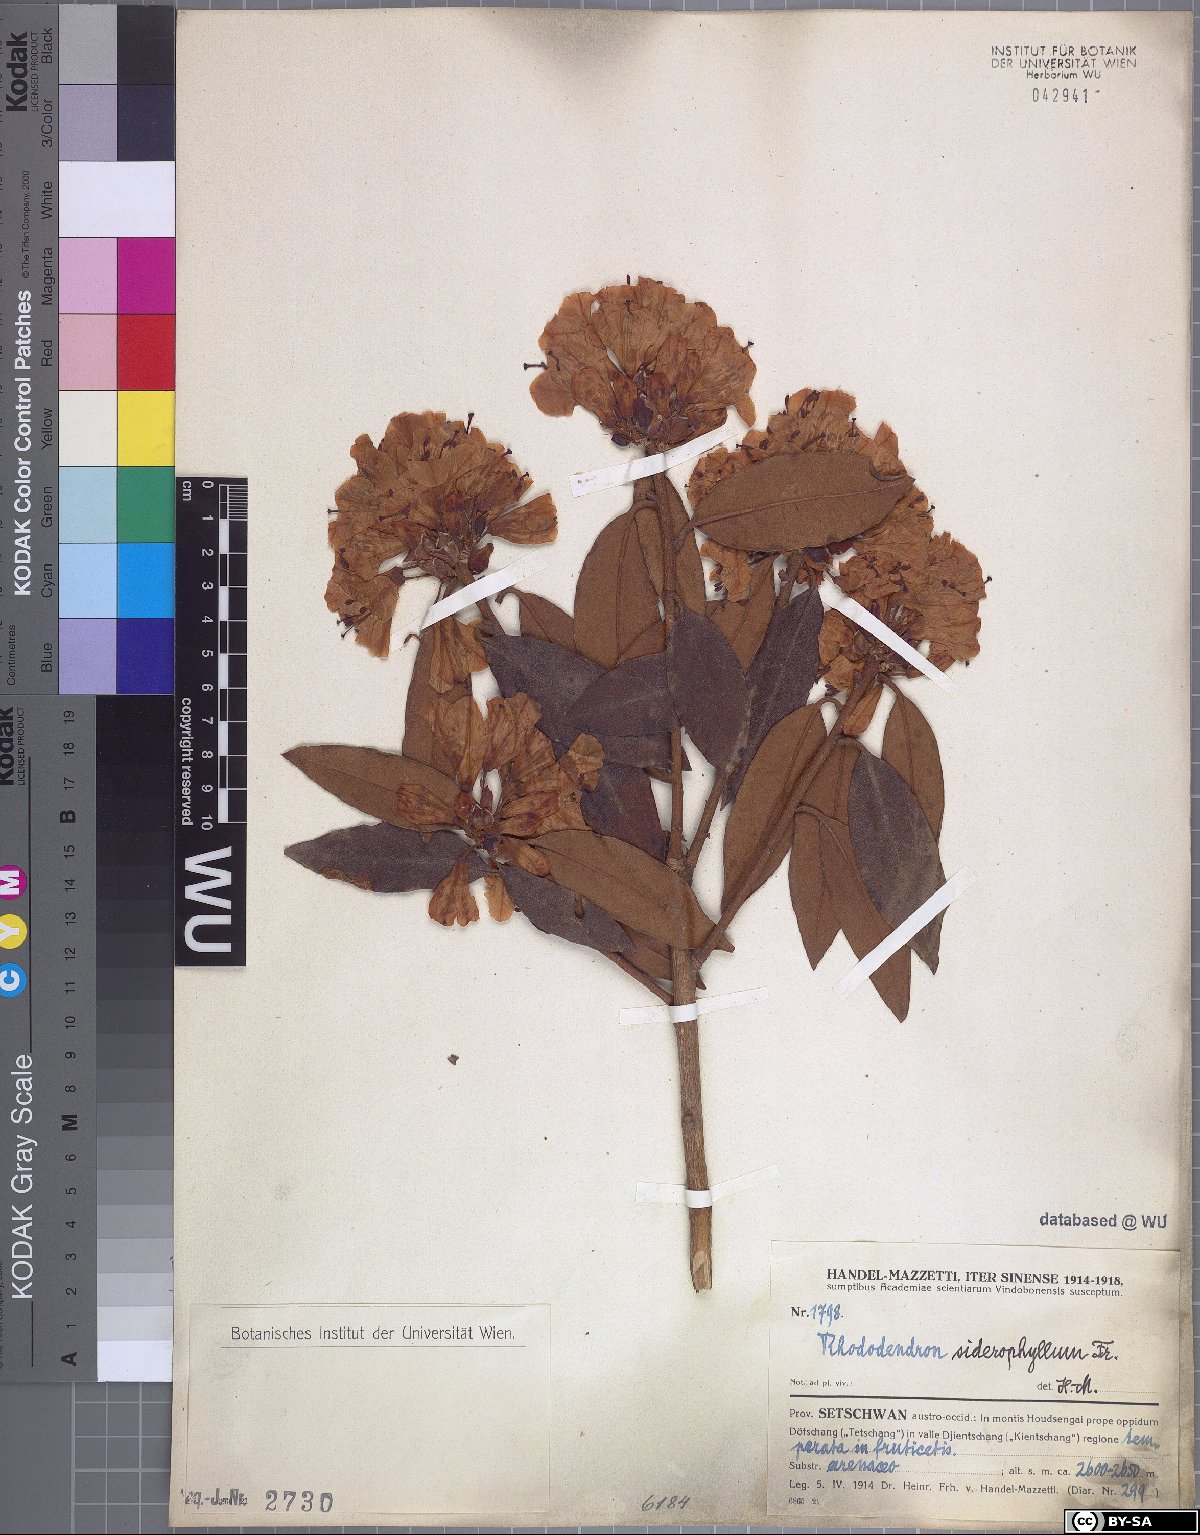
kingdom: Plantae
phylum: Tracheophyta
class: Magnoliopsida
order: Ericales
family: Ericaceae
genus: Rhododendron
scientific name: Rhododendron siderophyllum
